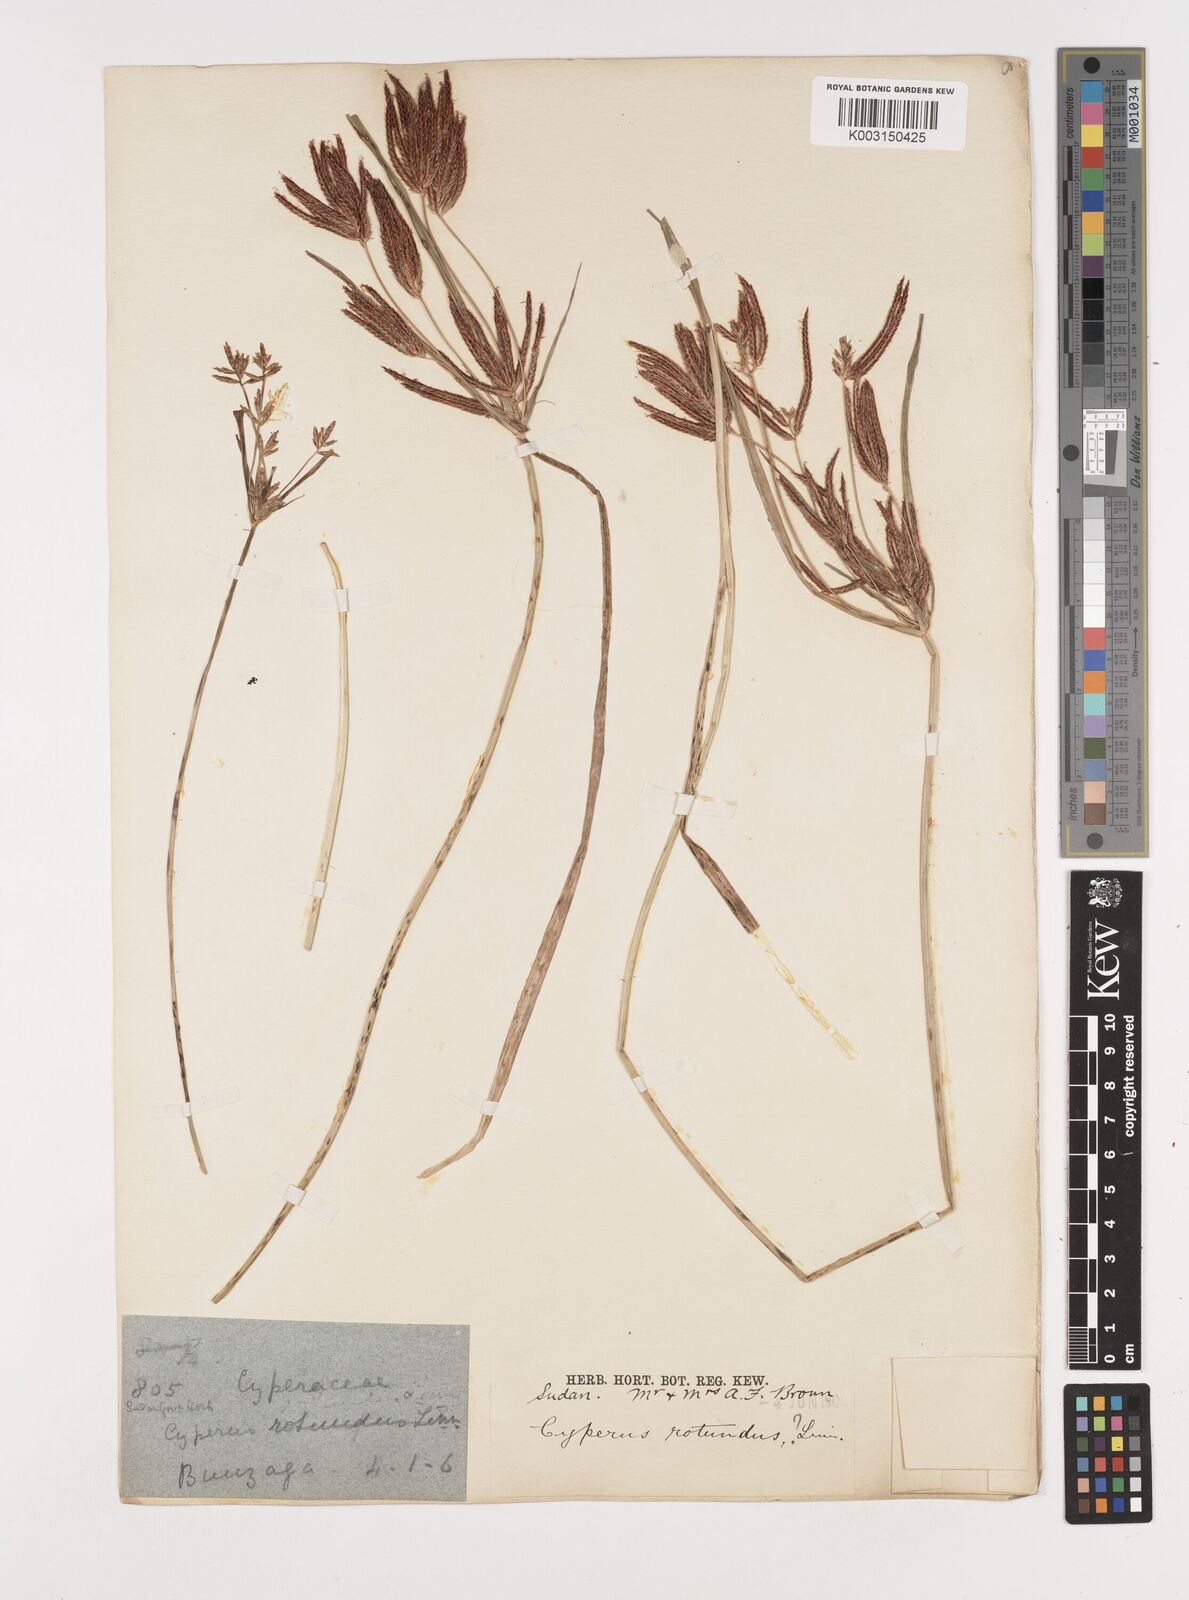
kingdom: Plantae
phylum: Tracheophyta
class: Liliopsida
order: Poales
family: Cyperaceae
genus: Cyperus
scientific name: Cyperus rotundus
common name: Nutgrass
